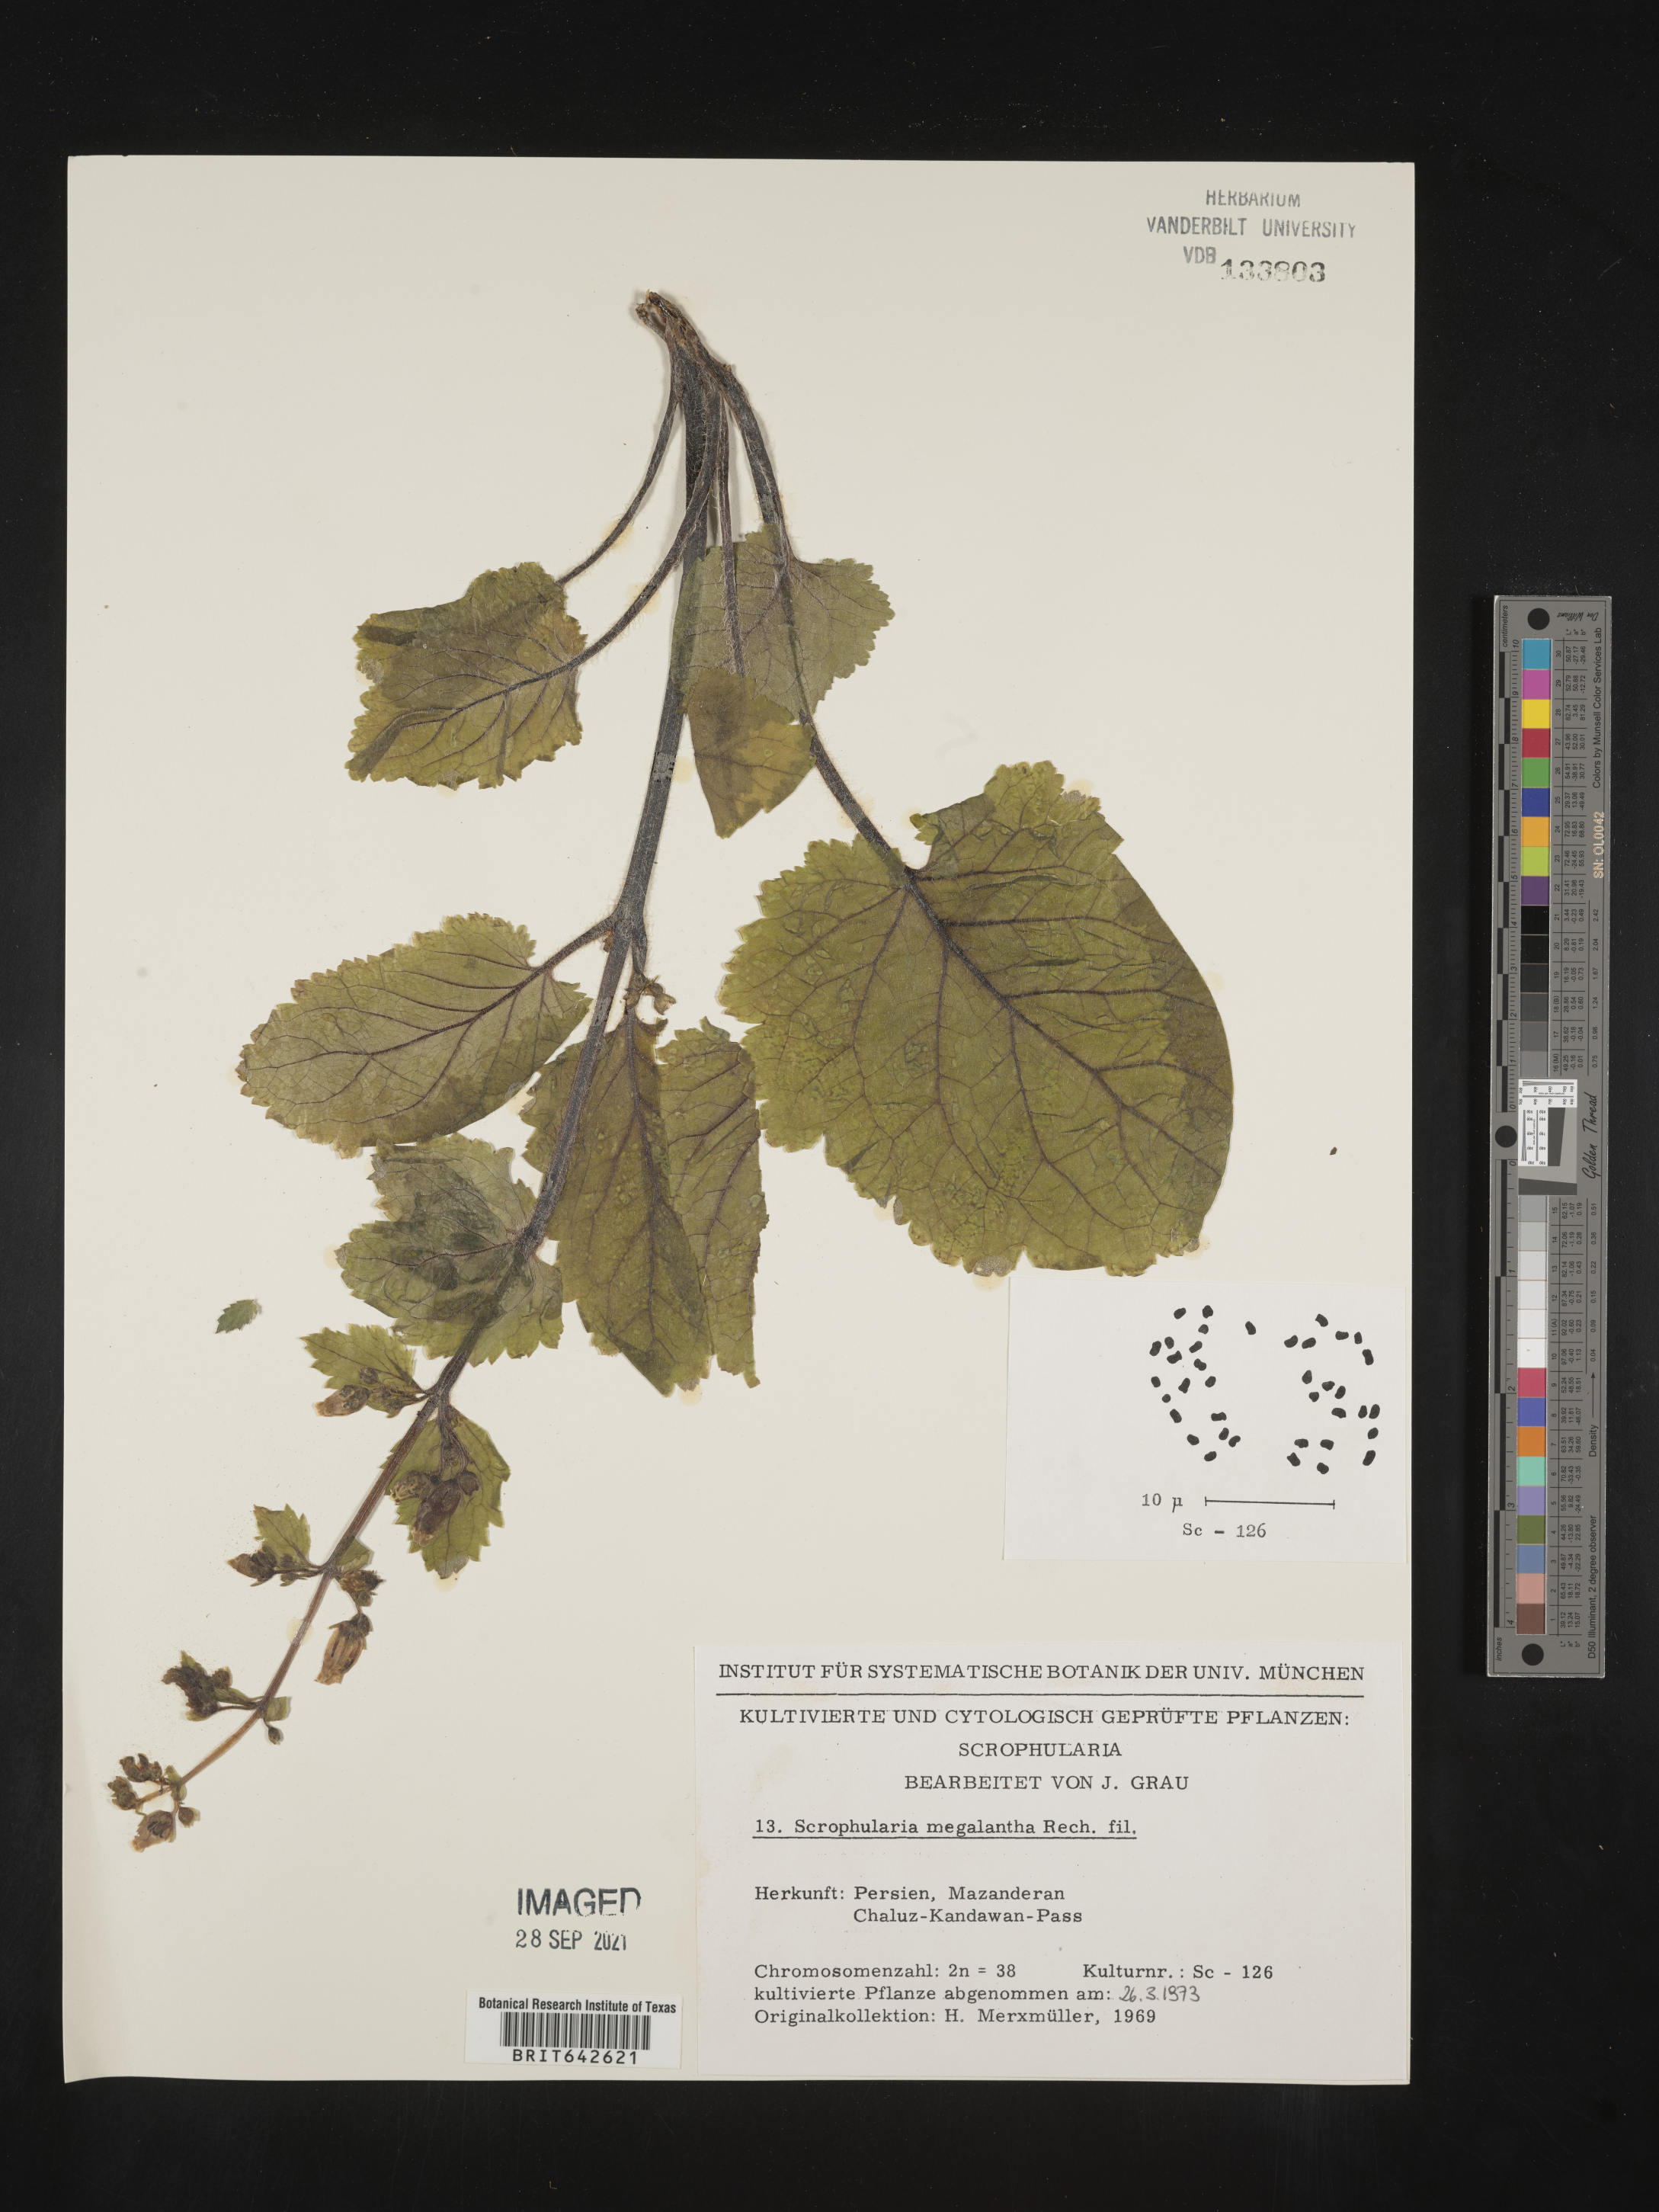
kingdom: Plantae
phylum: Tracheophyta
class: Magnoliopsida
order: Lamiales
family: Scrophulariaceae
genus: Scrophularia
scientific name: Scrophularia
